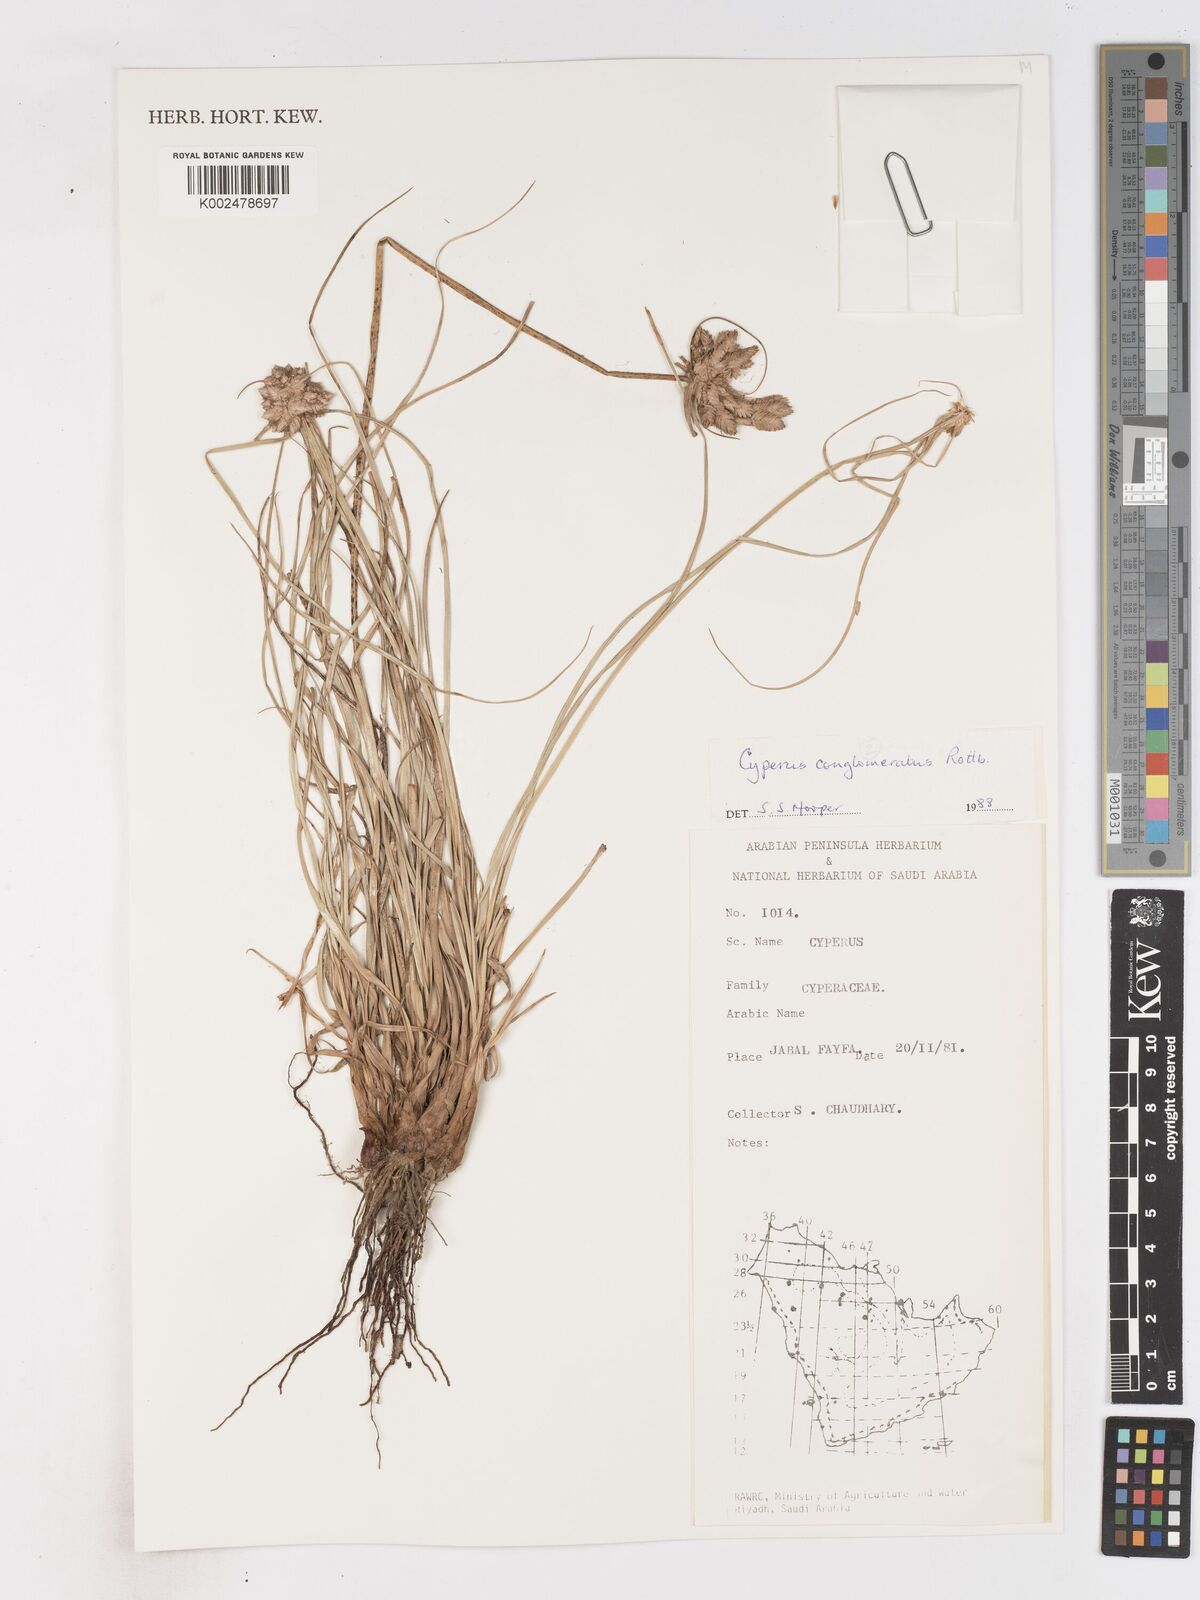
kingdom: Plantae
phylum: Tracheophyta
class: Liliopsida
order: Poales
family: Cyperaceae
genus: Cyperus
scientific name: Cyperus conglomeratus
